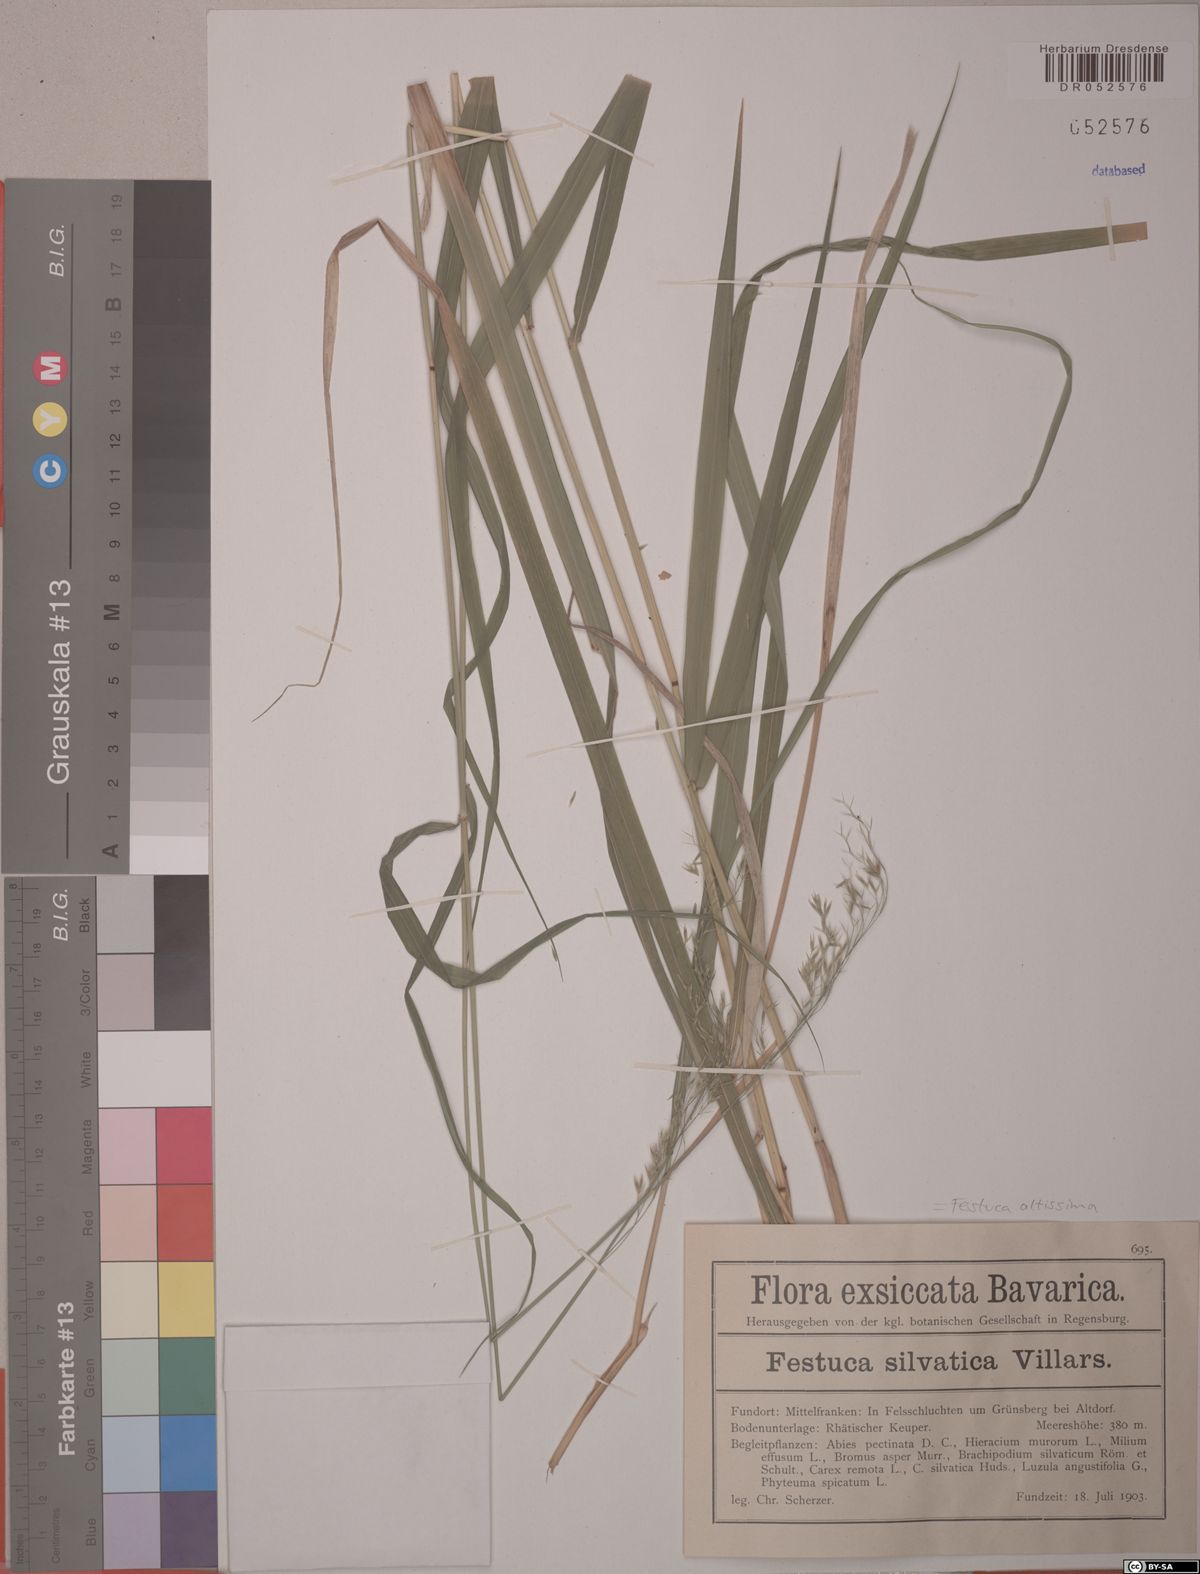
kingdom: Plantae
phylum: Tracheophyta
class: Liliopsida
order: Poales
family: Poaceae
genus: Festuca
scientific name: Festuca altissima
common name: Wood fescue
